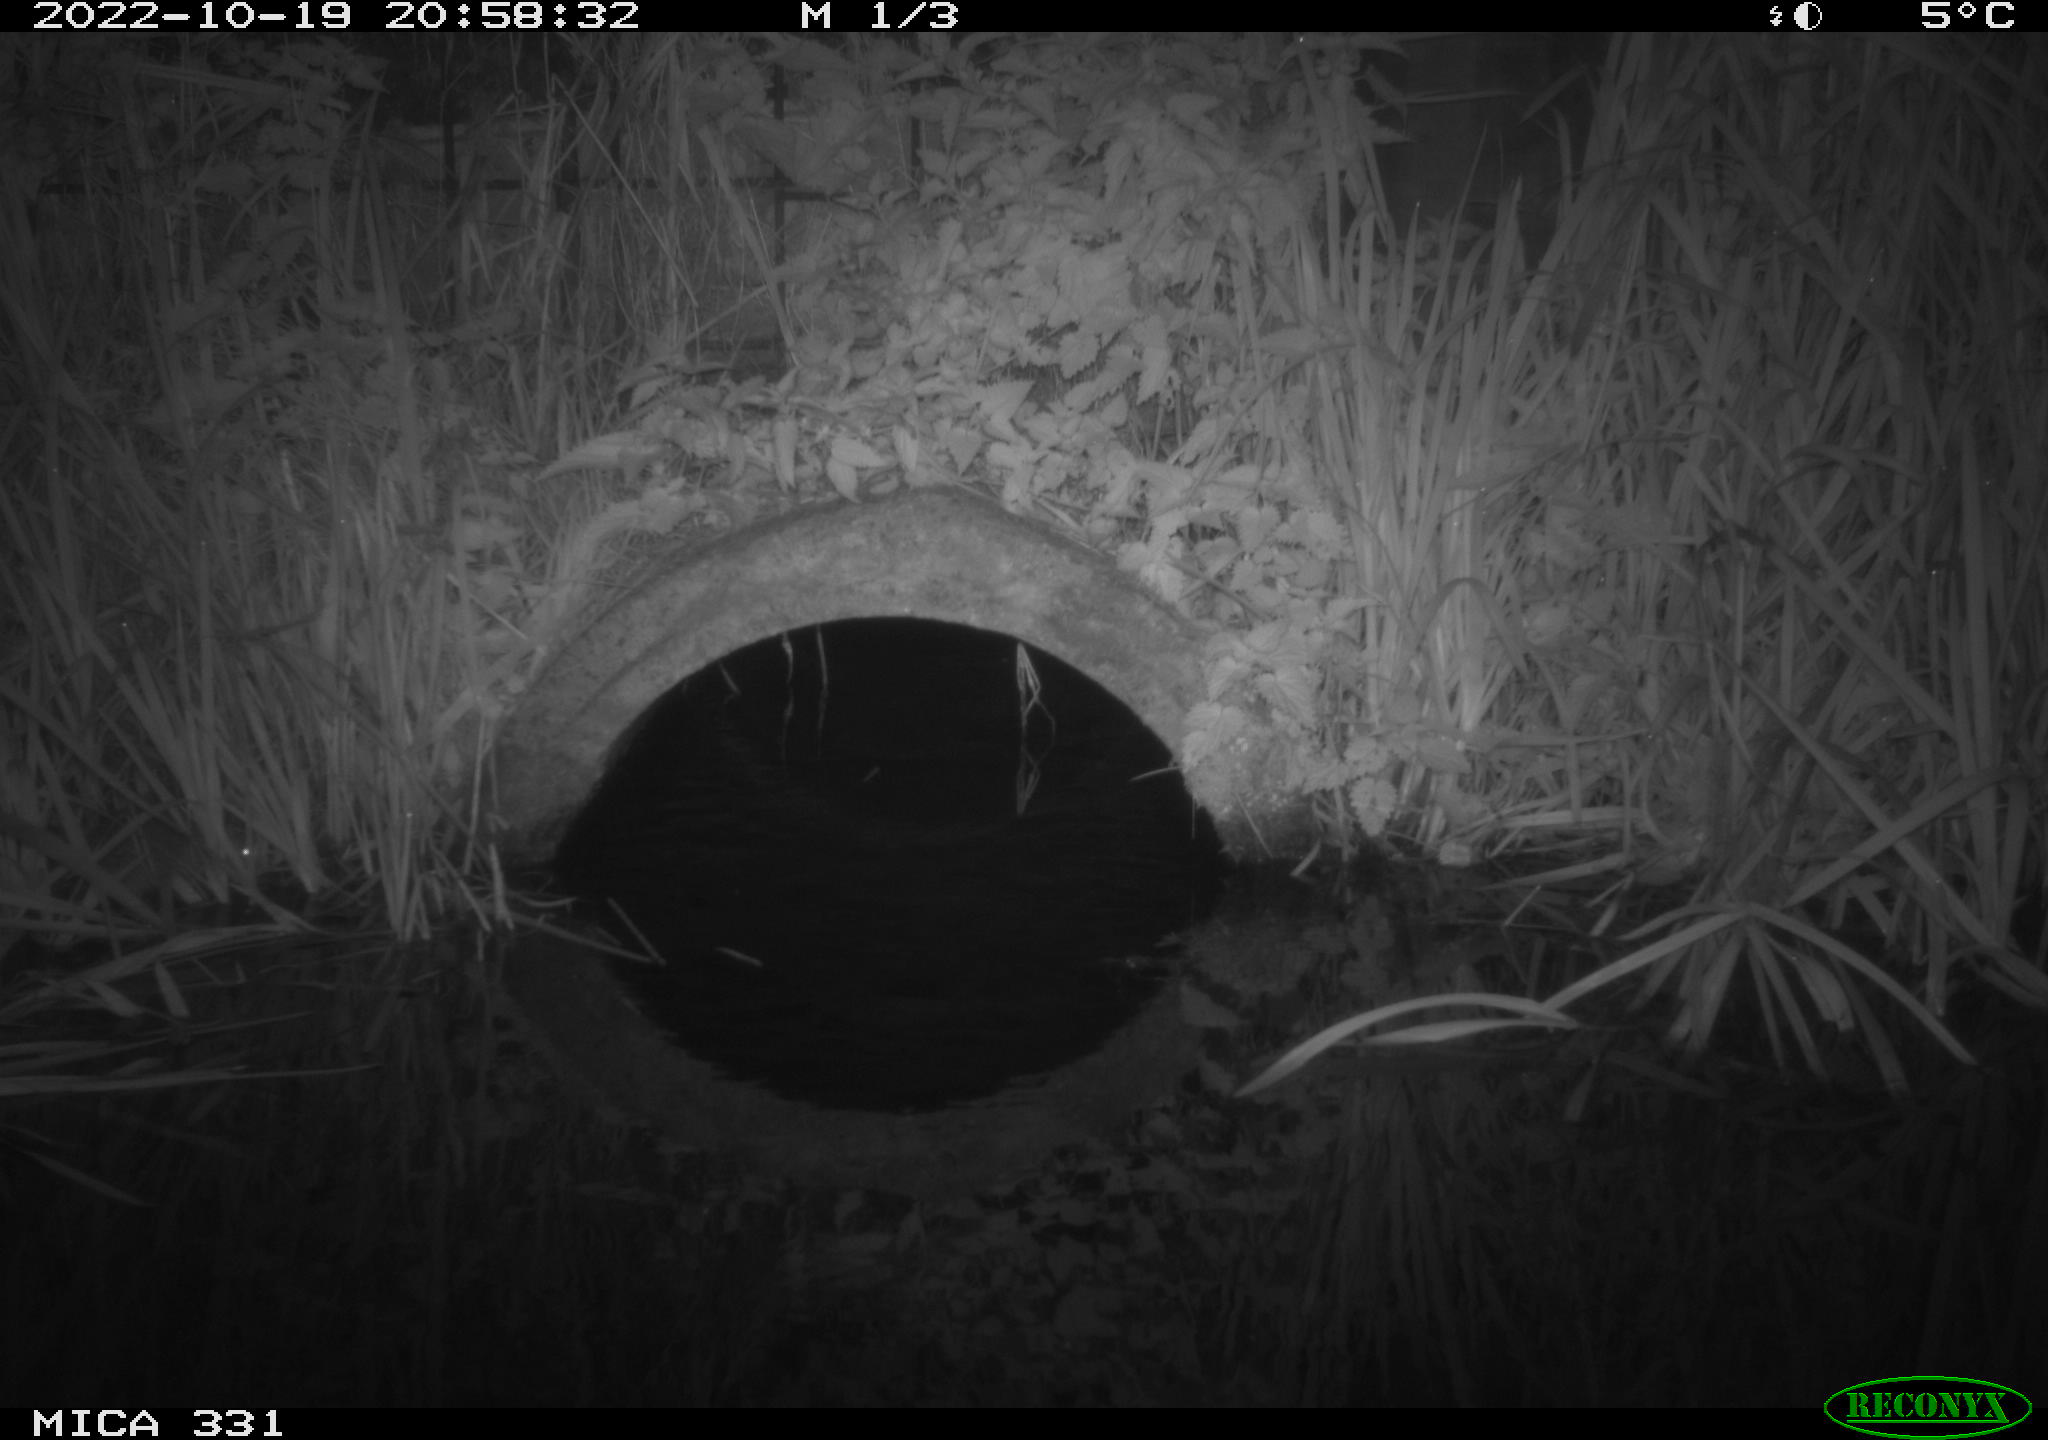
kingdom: Animalia
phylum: Chordata
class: Mammalia
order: Rodentia
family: Muridae
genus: Rattus
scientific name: Rattus norvegicus
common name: Brown rat
